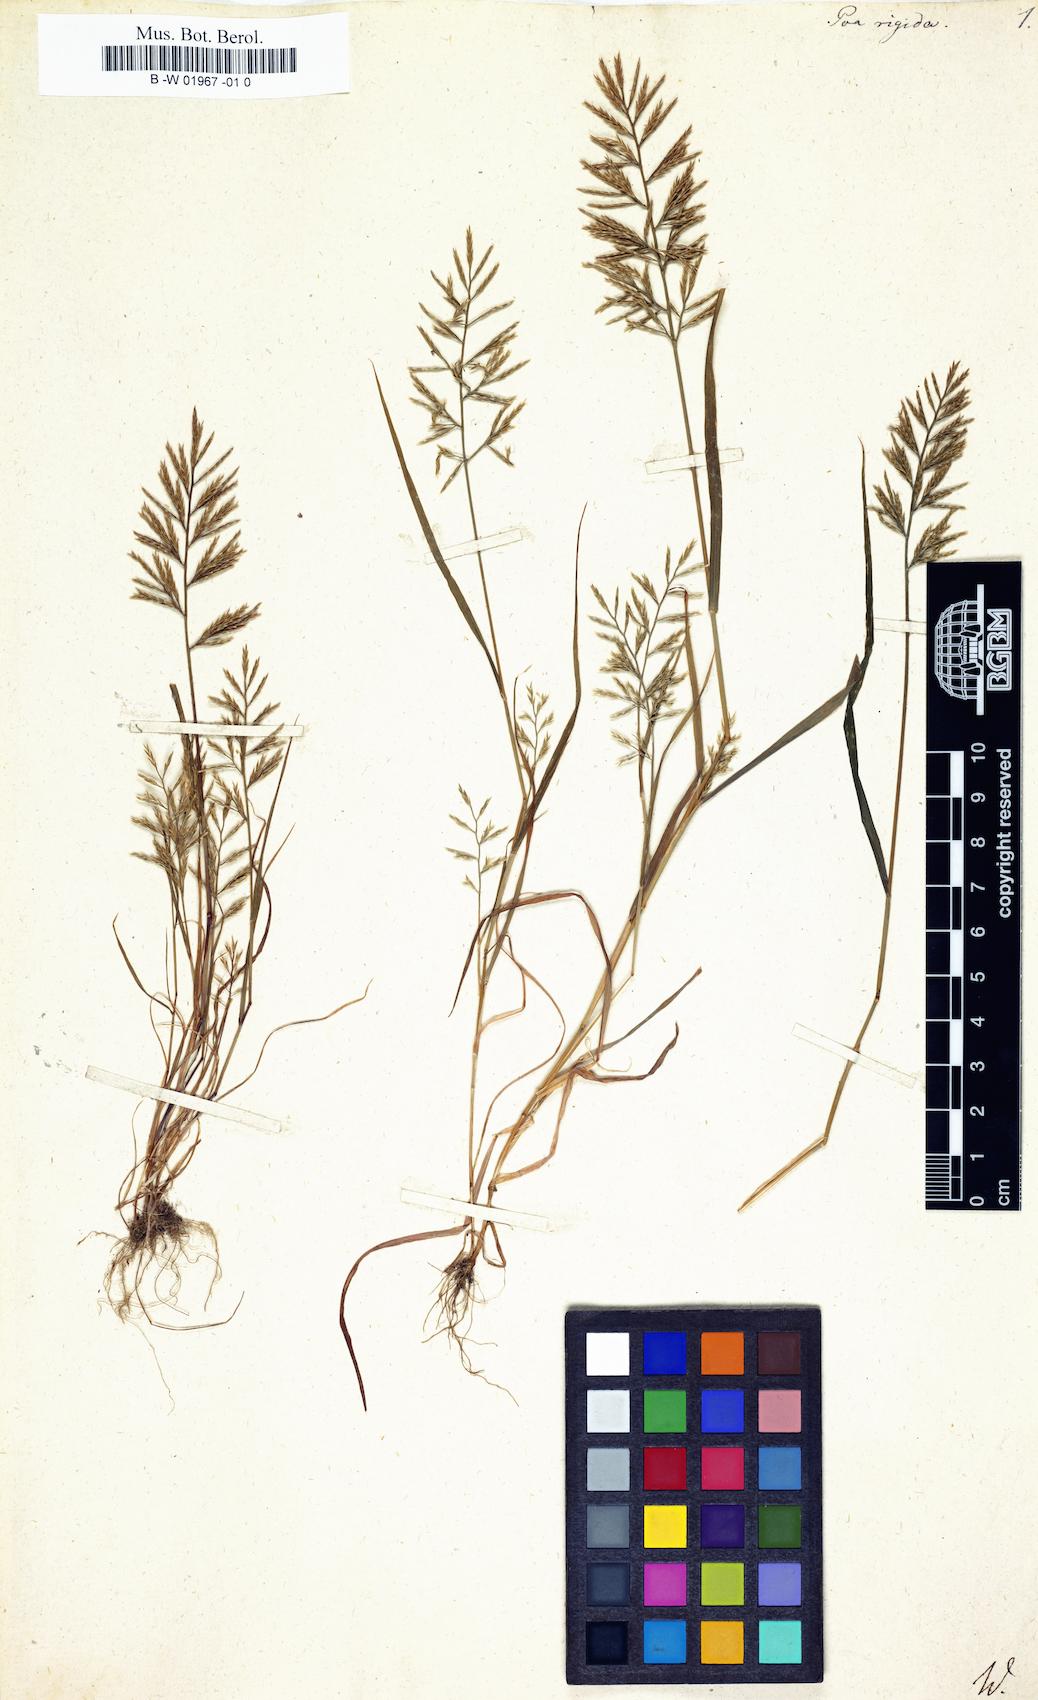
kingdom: Plantae
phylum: Tracheophyta
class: Liliopsida
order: Poales
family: Poaceae
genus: Poa
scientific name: Poa rigida
